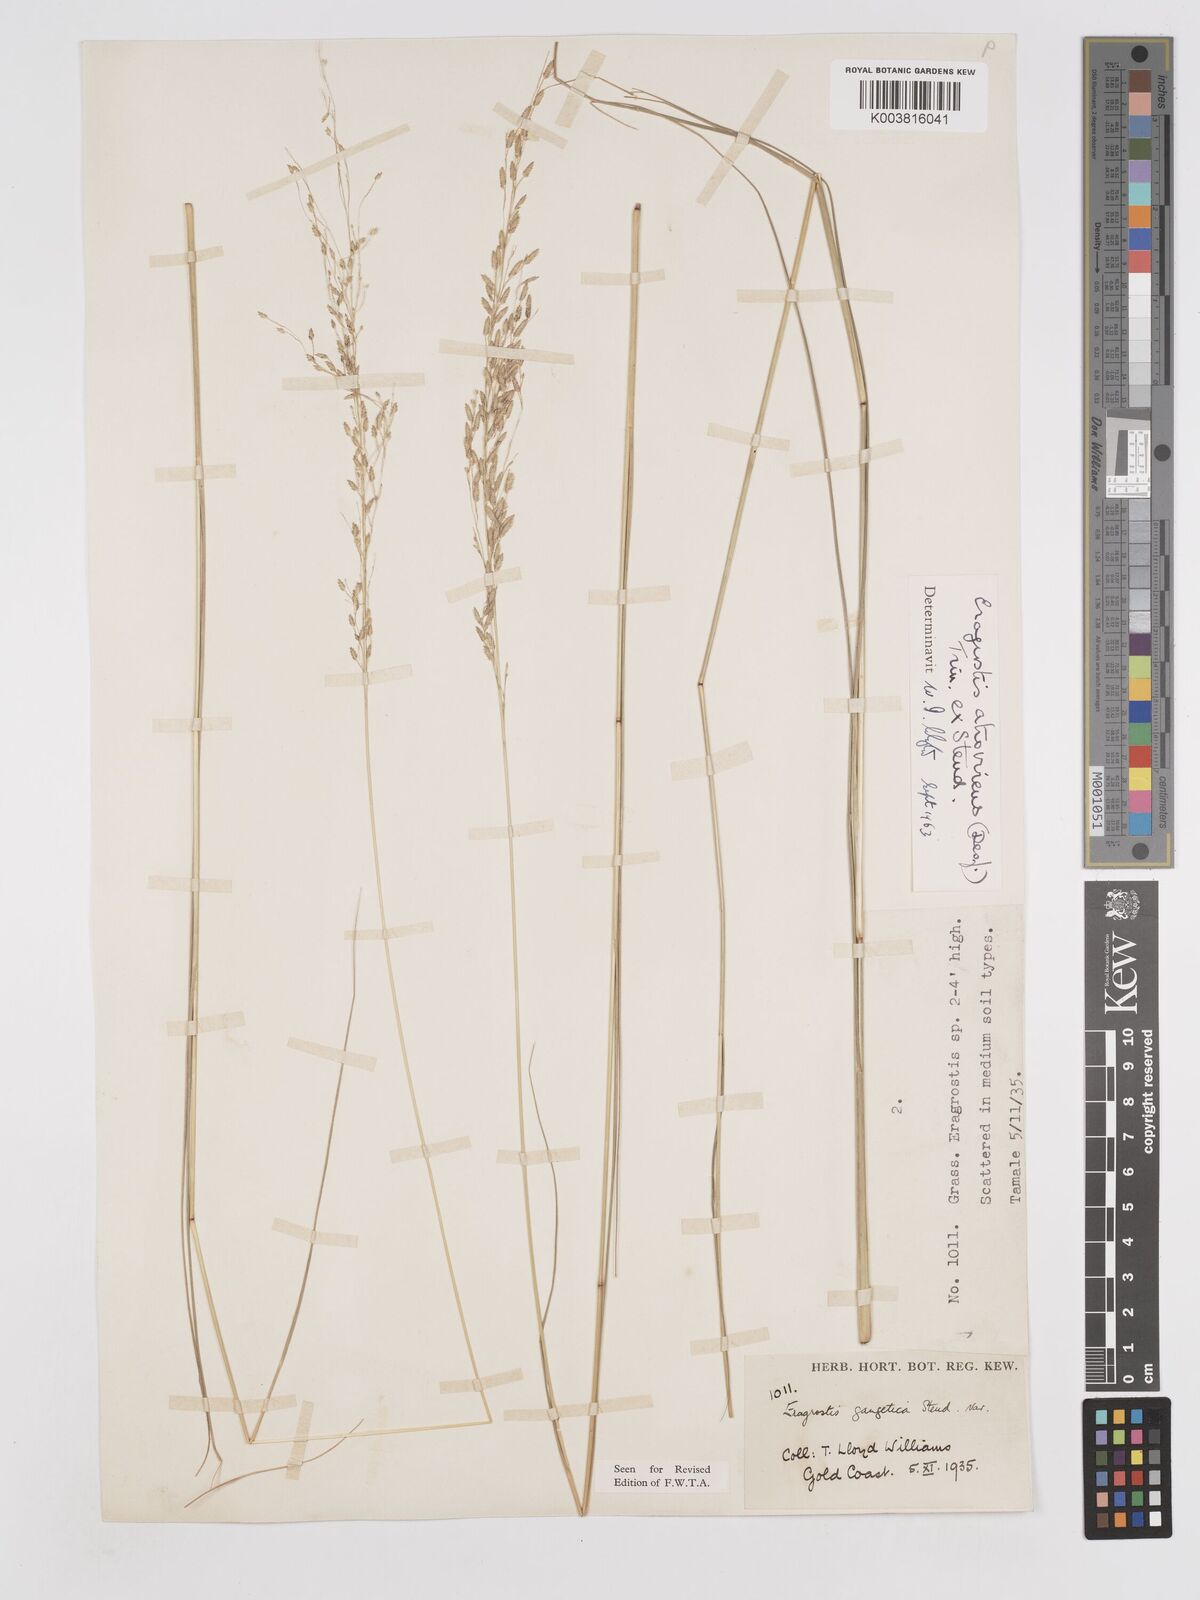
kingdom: Plantae
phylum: Tracheophyta
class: Liliopsida
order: Poales
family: Poaceae
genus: Eragrostis
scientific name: Eragrostis atrovirens
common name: Thalia lovegrass
